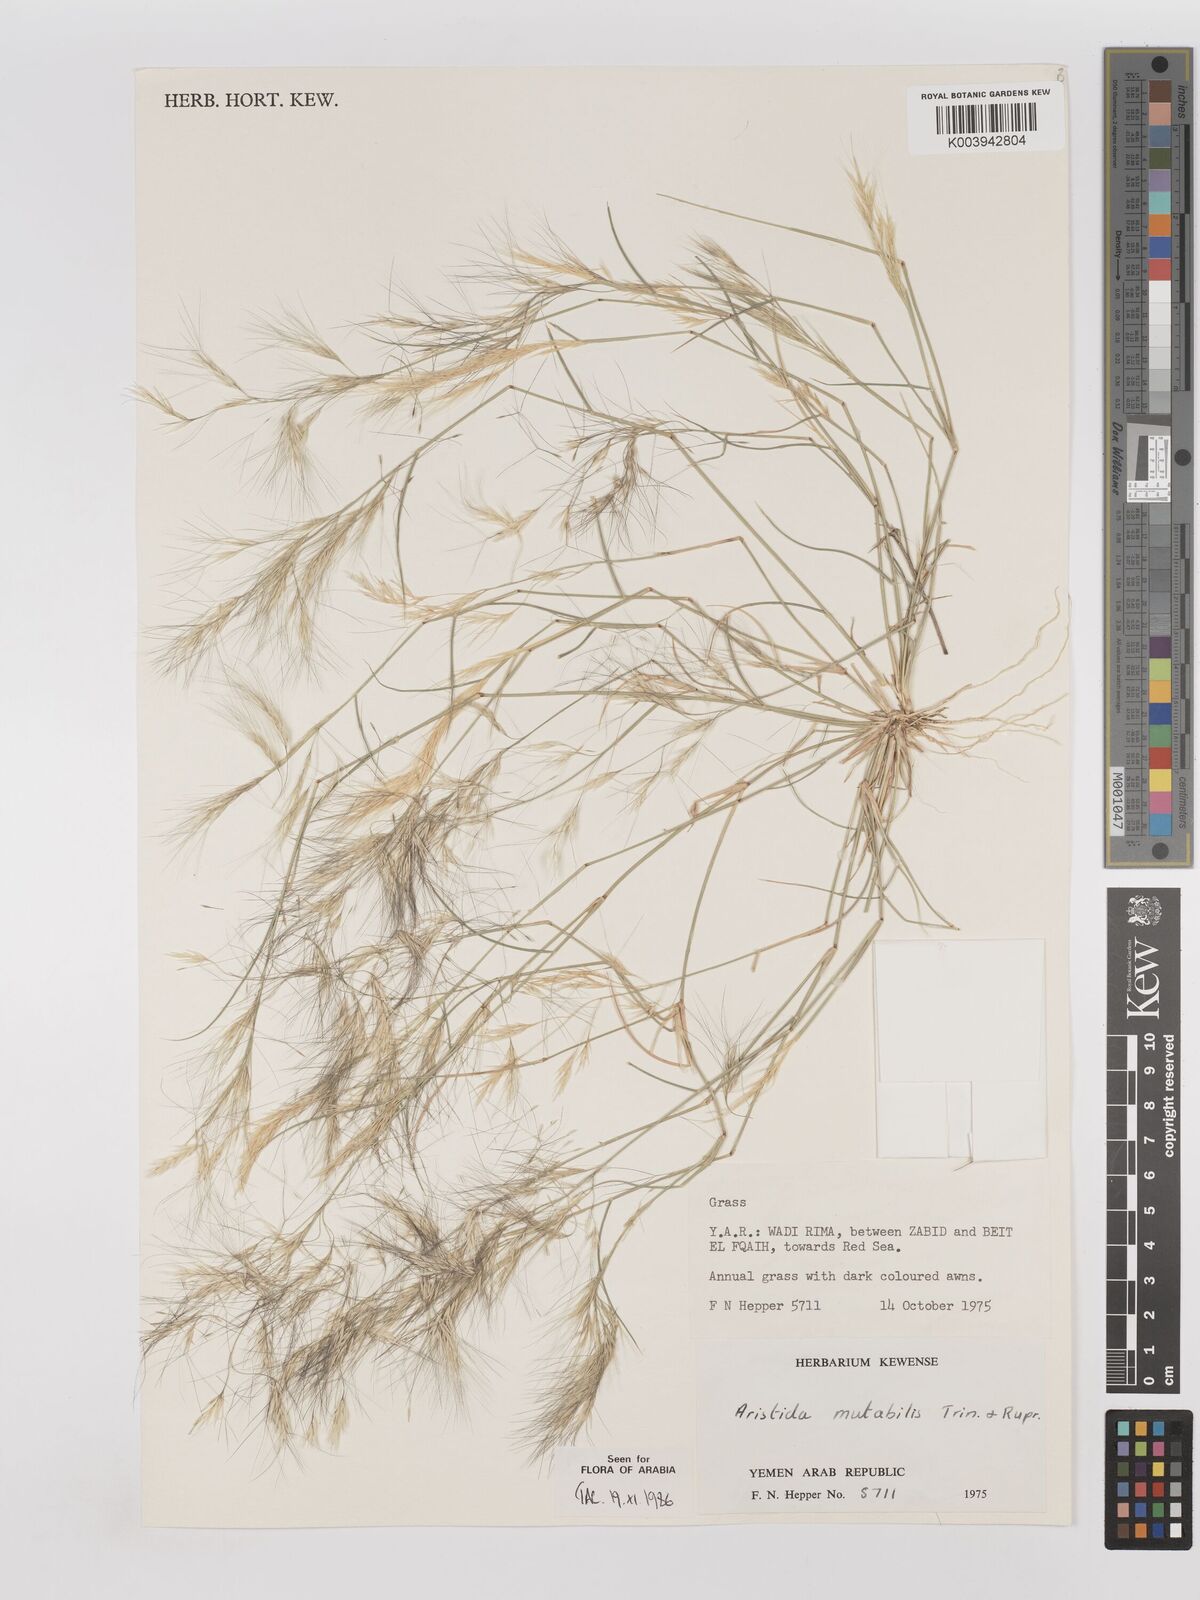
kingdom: Plantae
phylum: Tracheophyta
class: Liliopsida
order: Poales
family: Poaceae
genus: Aristida
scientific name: Aristida mutabilis
